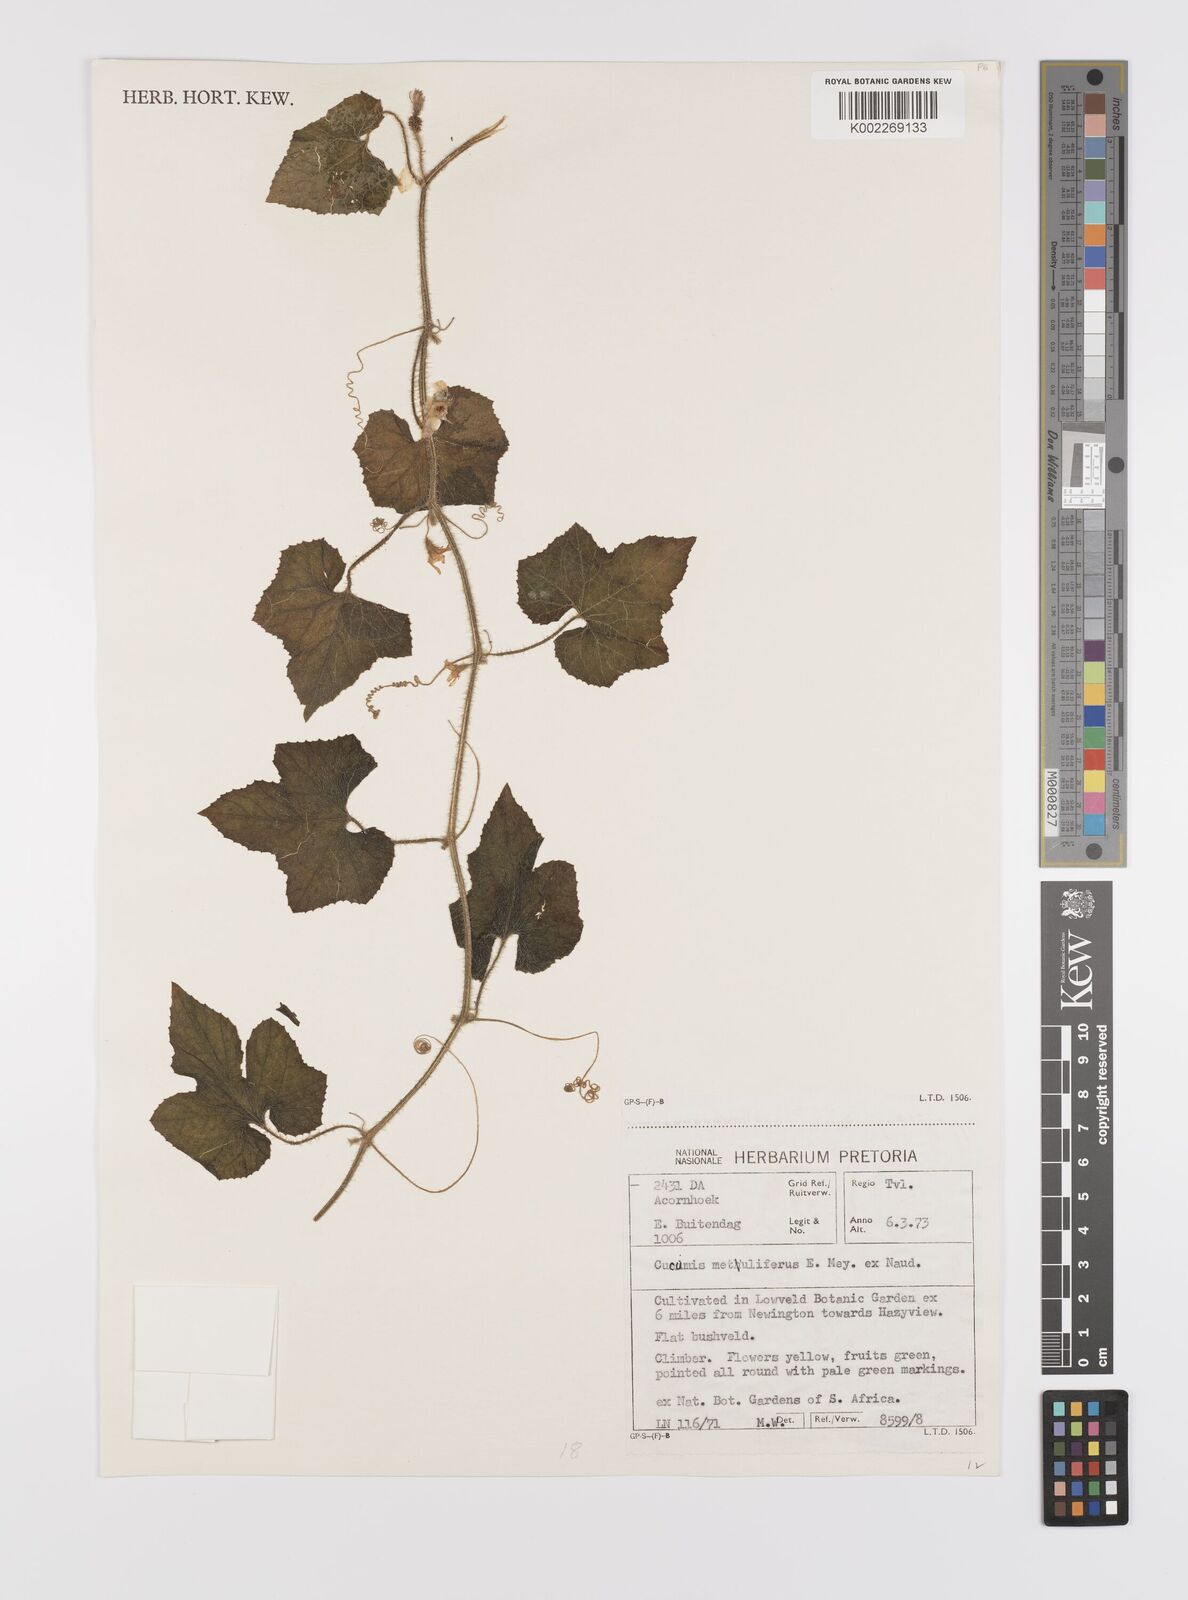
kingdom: Plantae
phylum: Tracheophyta
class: Magnoliopsida
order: Cucurbitales
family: Cucurbitaceae
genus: Cucumis
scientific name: Cucumis metuliferus
